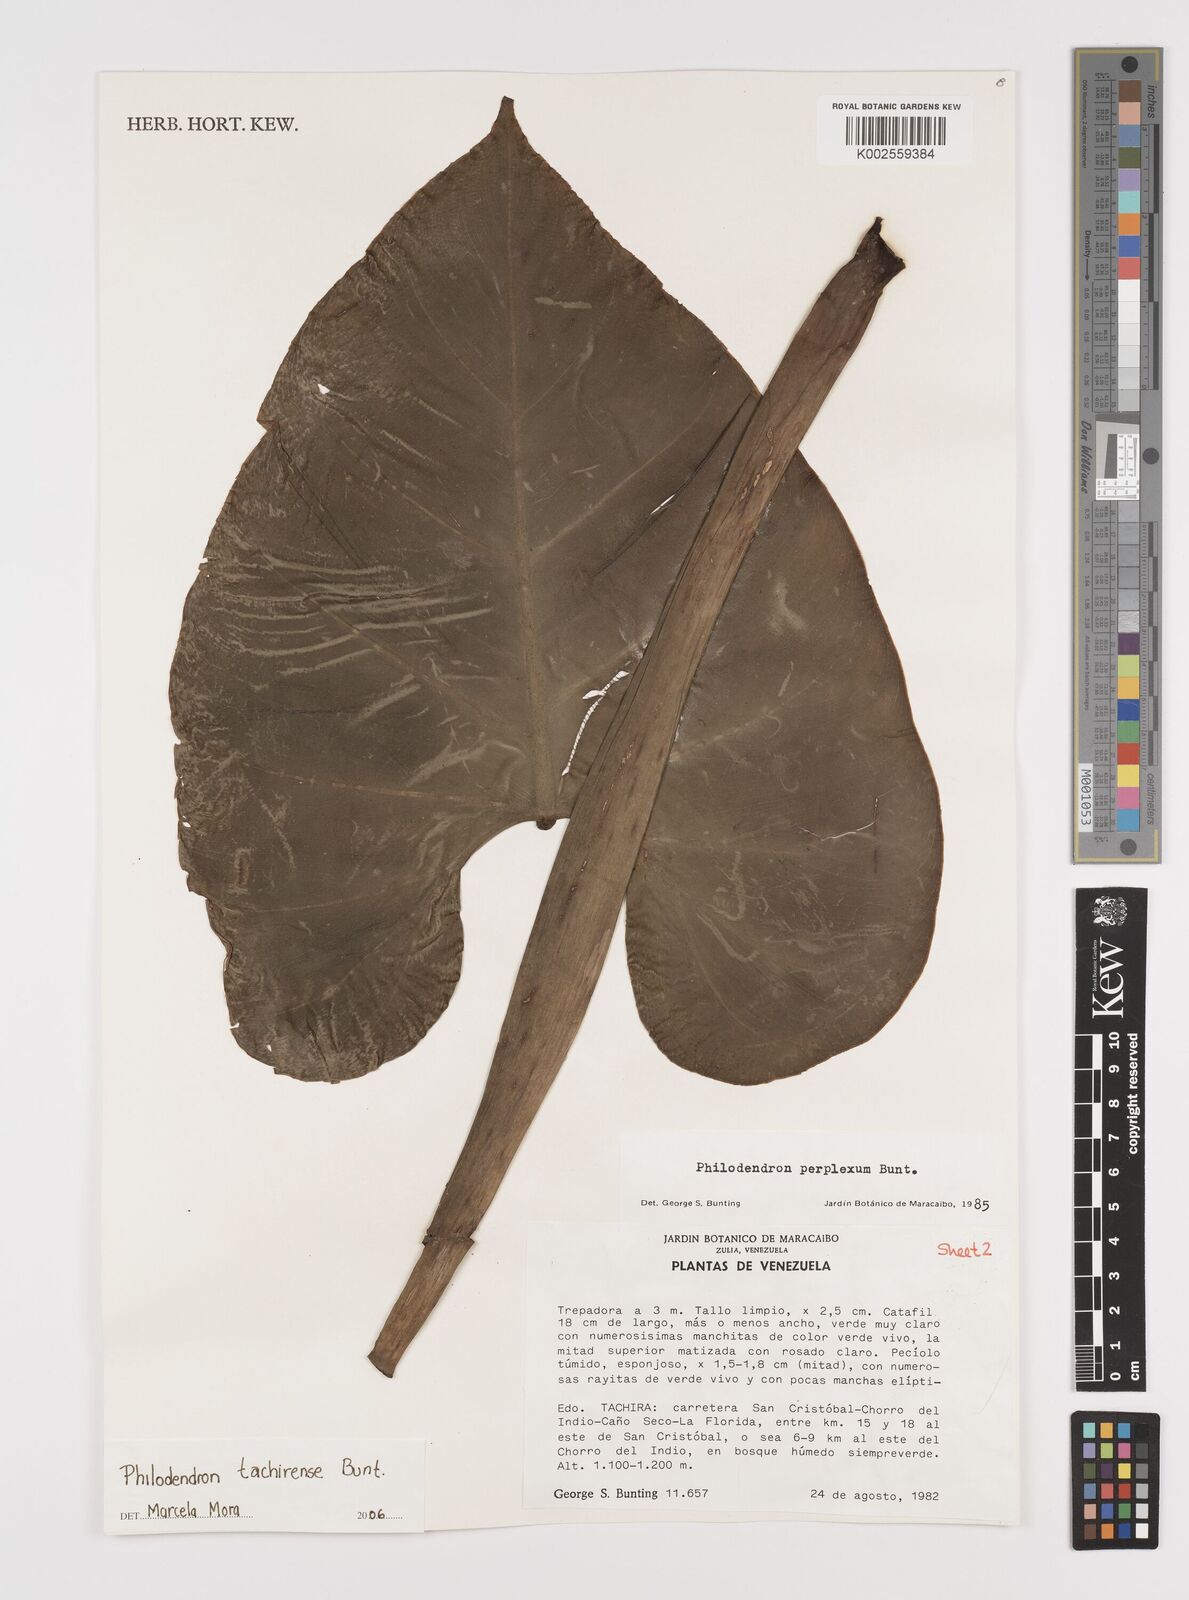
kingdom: Plantae
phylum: Tracheophyta
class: Liliopsida
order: Alismatales
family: Araceae
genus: Philodendron
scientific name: Philodendron tachirense
